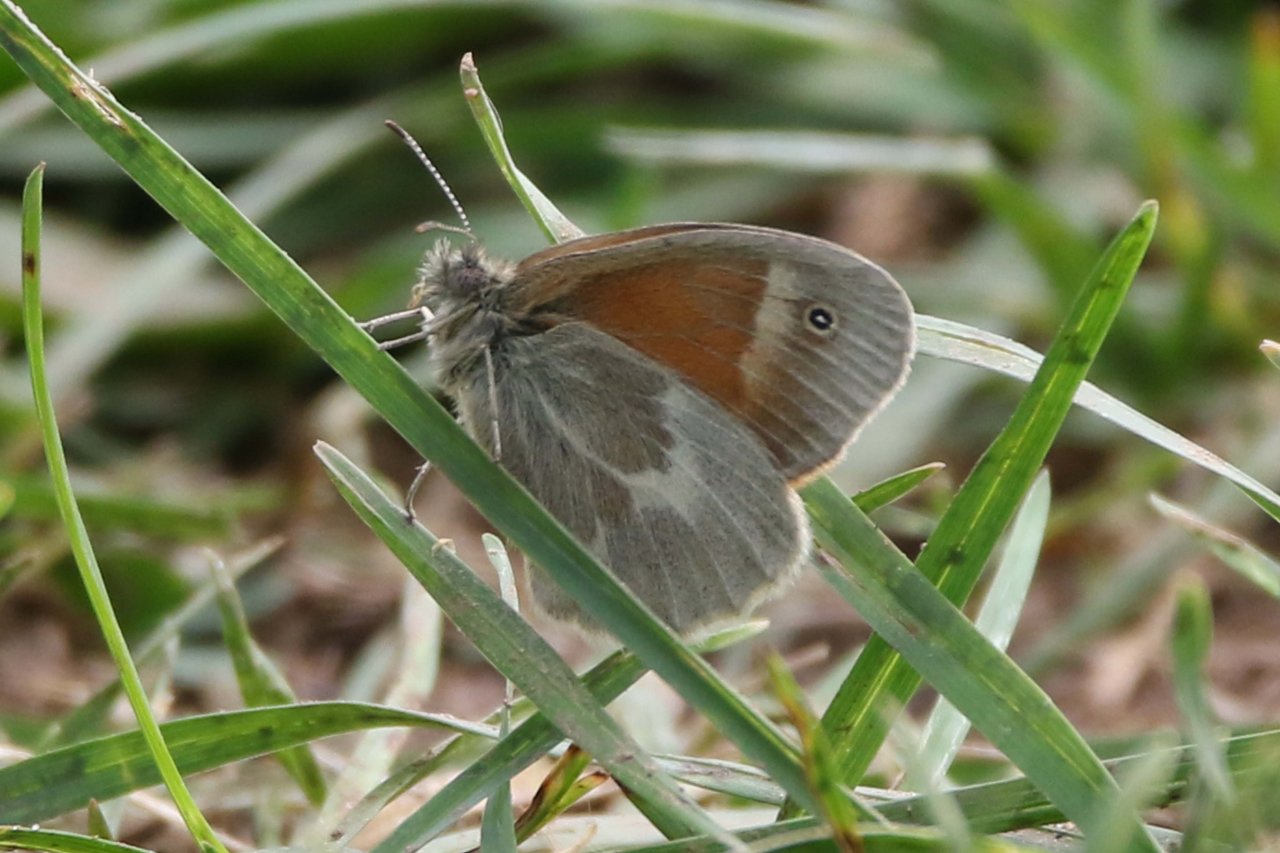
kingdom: Animalia
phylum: Arthropoda
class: Insecta
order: Lepidoptera
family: Nymphalidae
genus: Coenonympha
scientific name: Coenonympha tullia
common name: Large Heath
